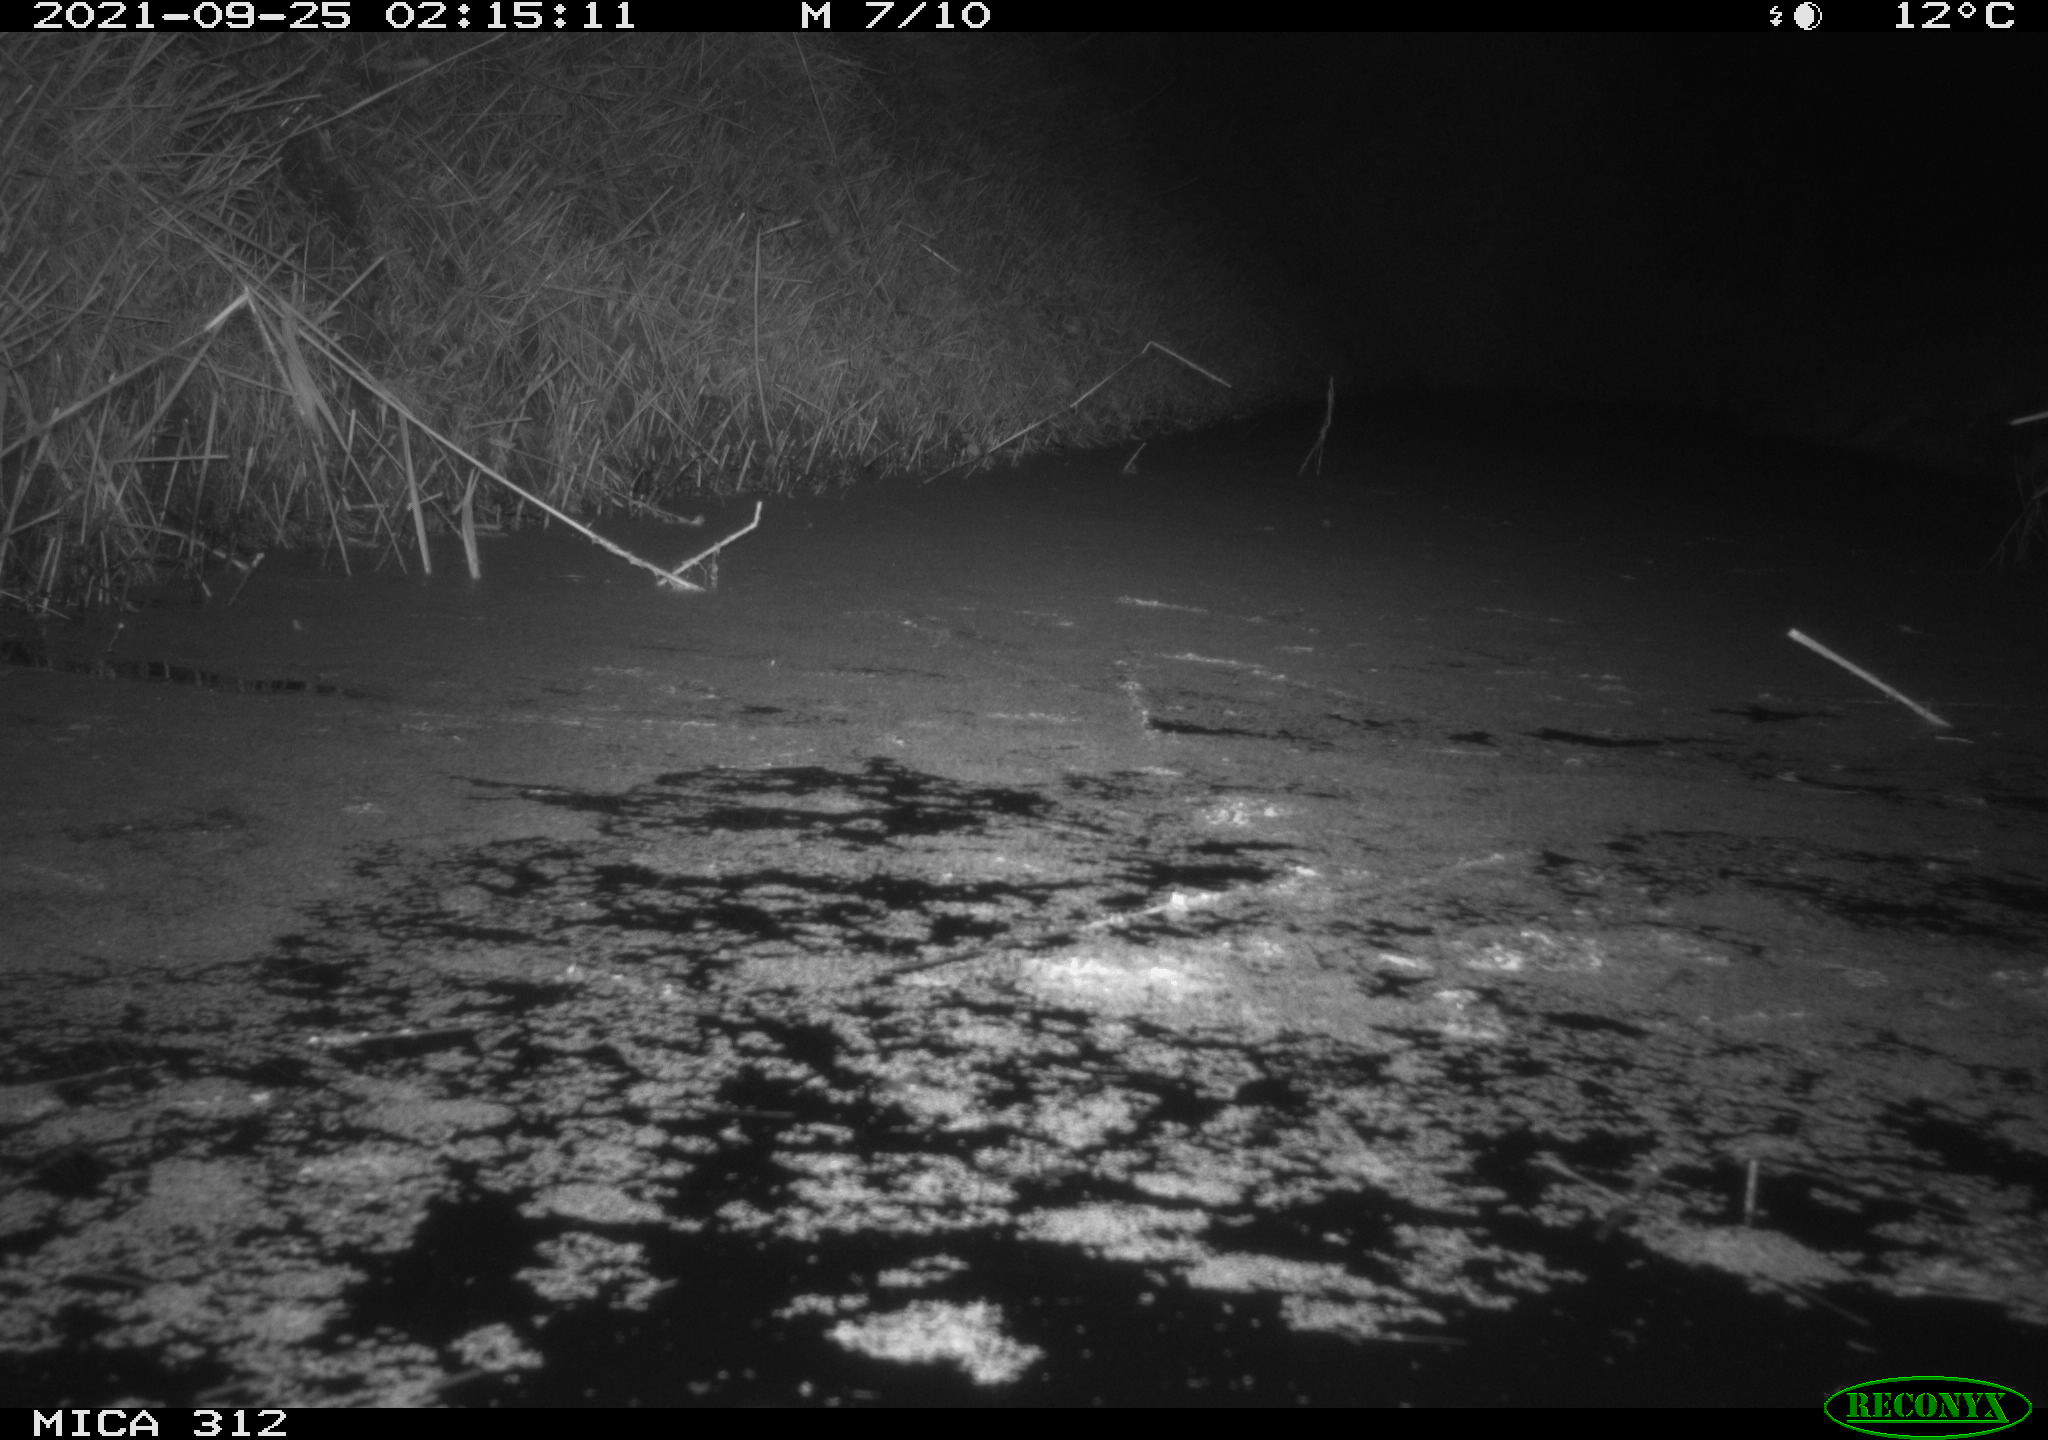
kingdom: Animalia
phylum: Chordata
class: Mammalia
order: Rodentia
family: Muridae
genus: Rattus
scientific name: Rattus norvegicus
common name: Brown rat
